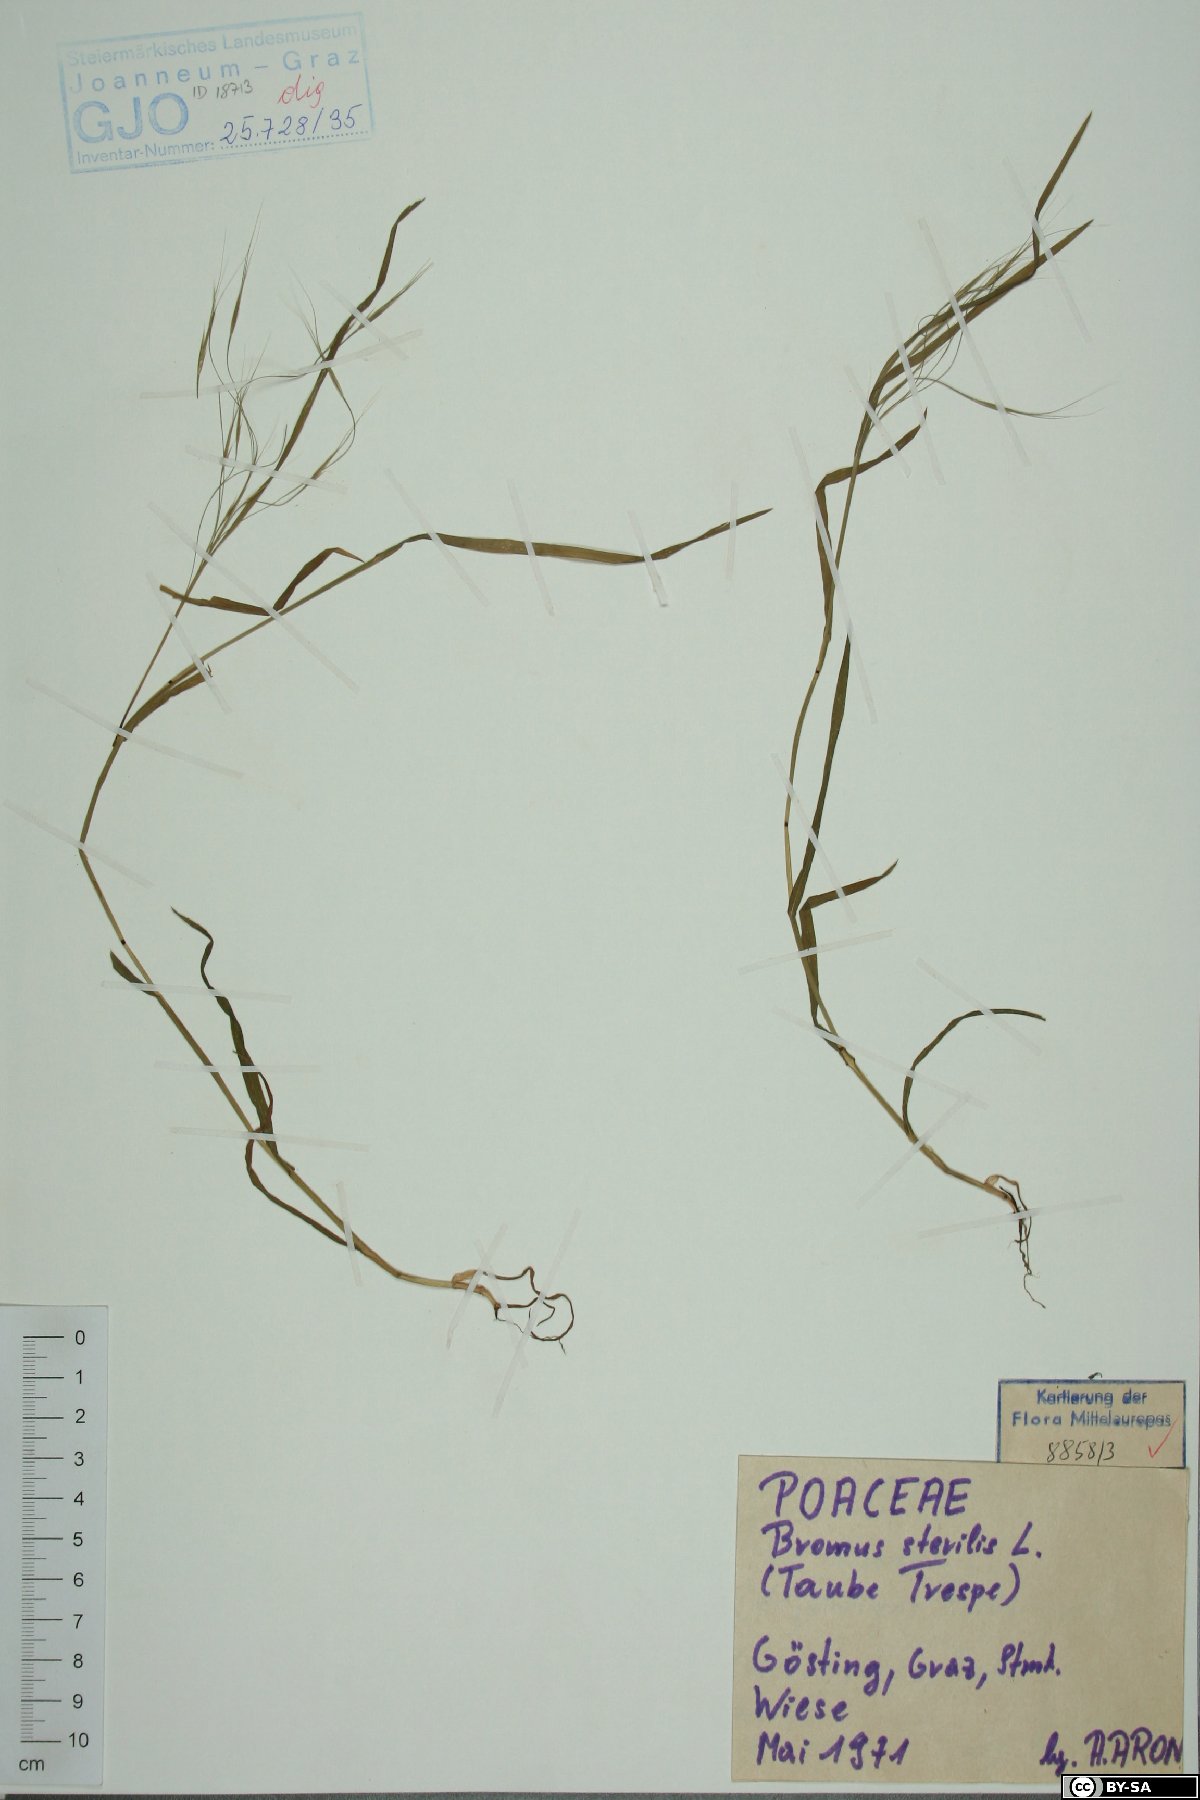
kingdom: Plantae
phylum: Tracheophyta
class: Liliopsida
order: Poales
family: Poaceae
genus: Bromus
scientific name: Bromus sterilis
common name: Poverty brome
